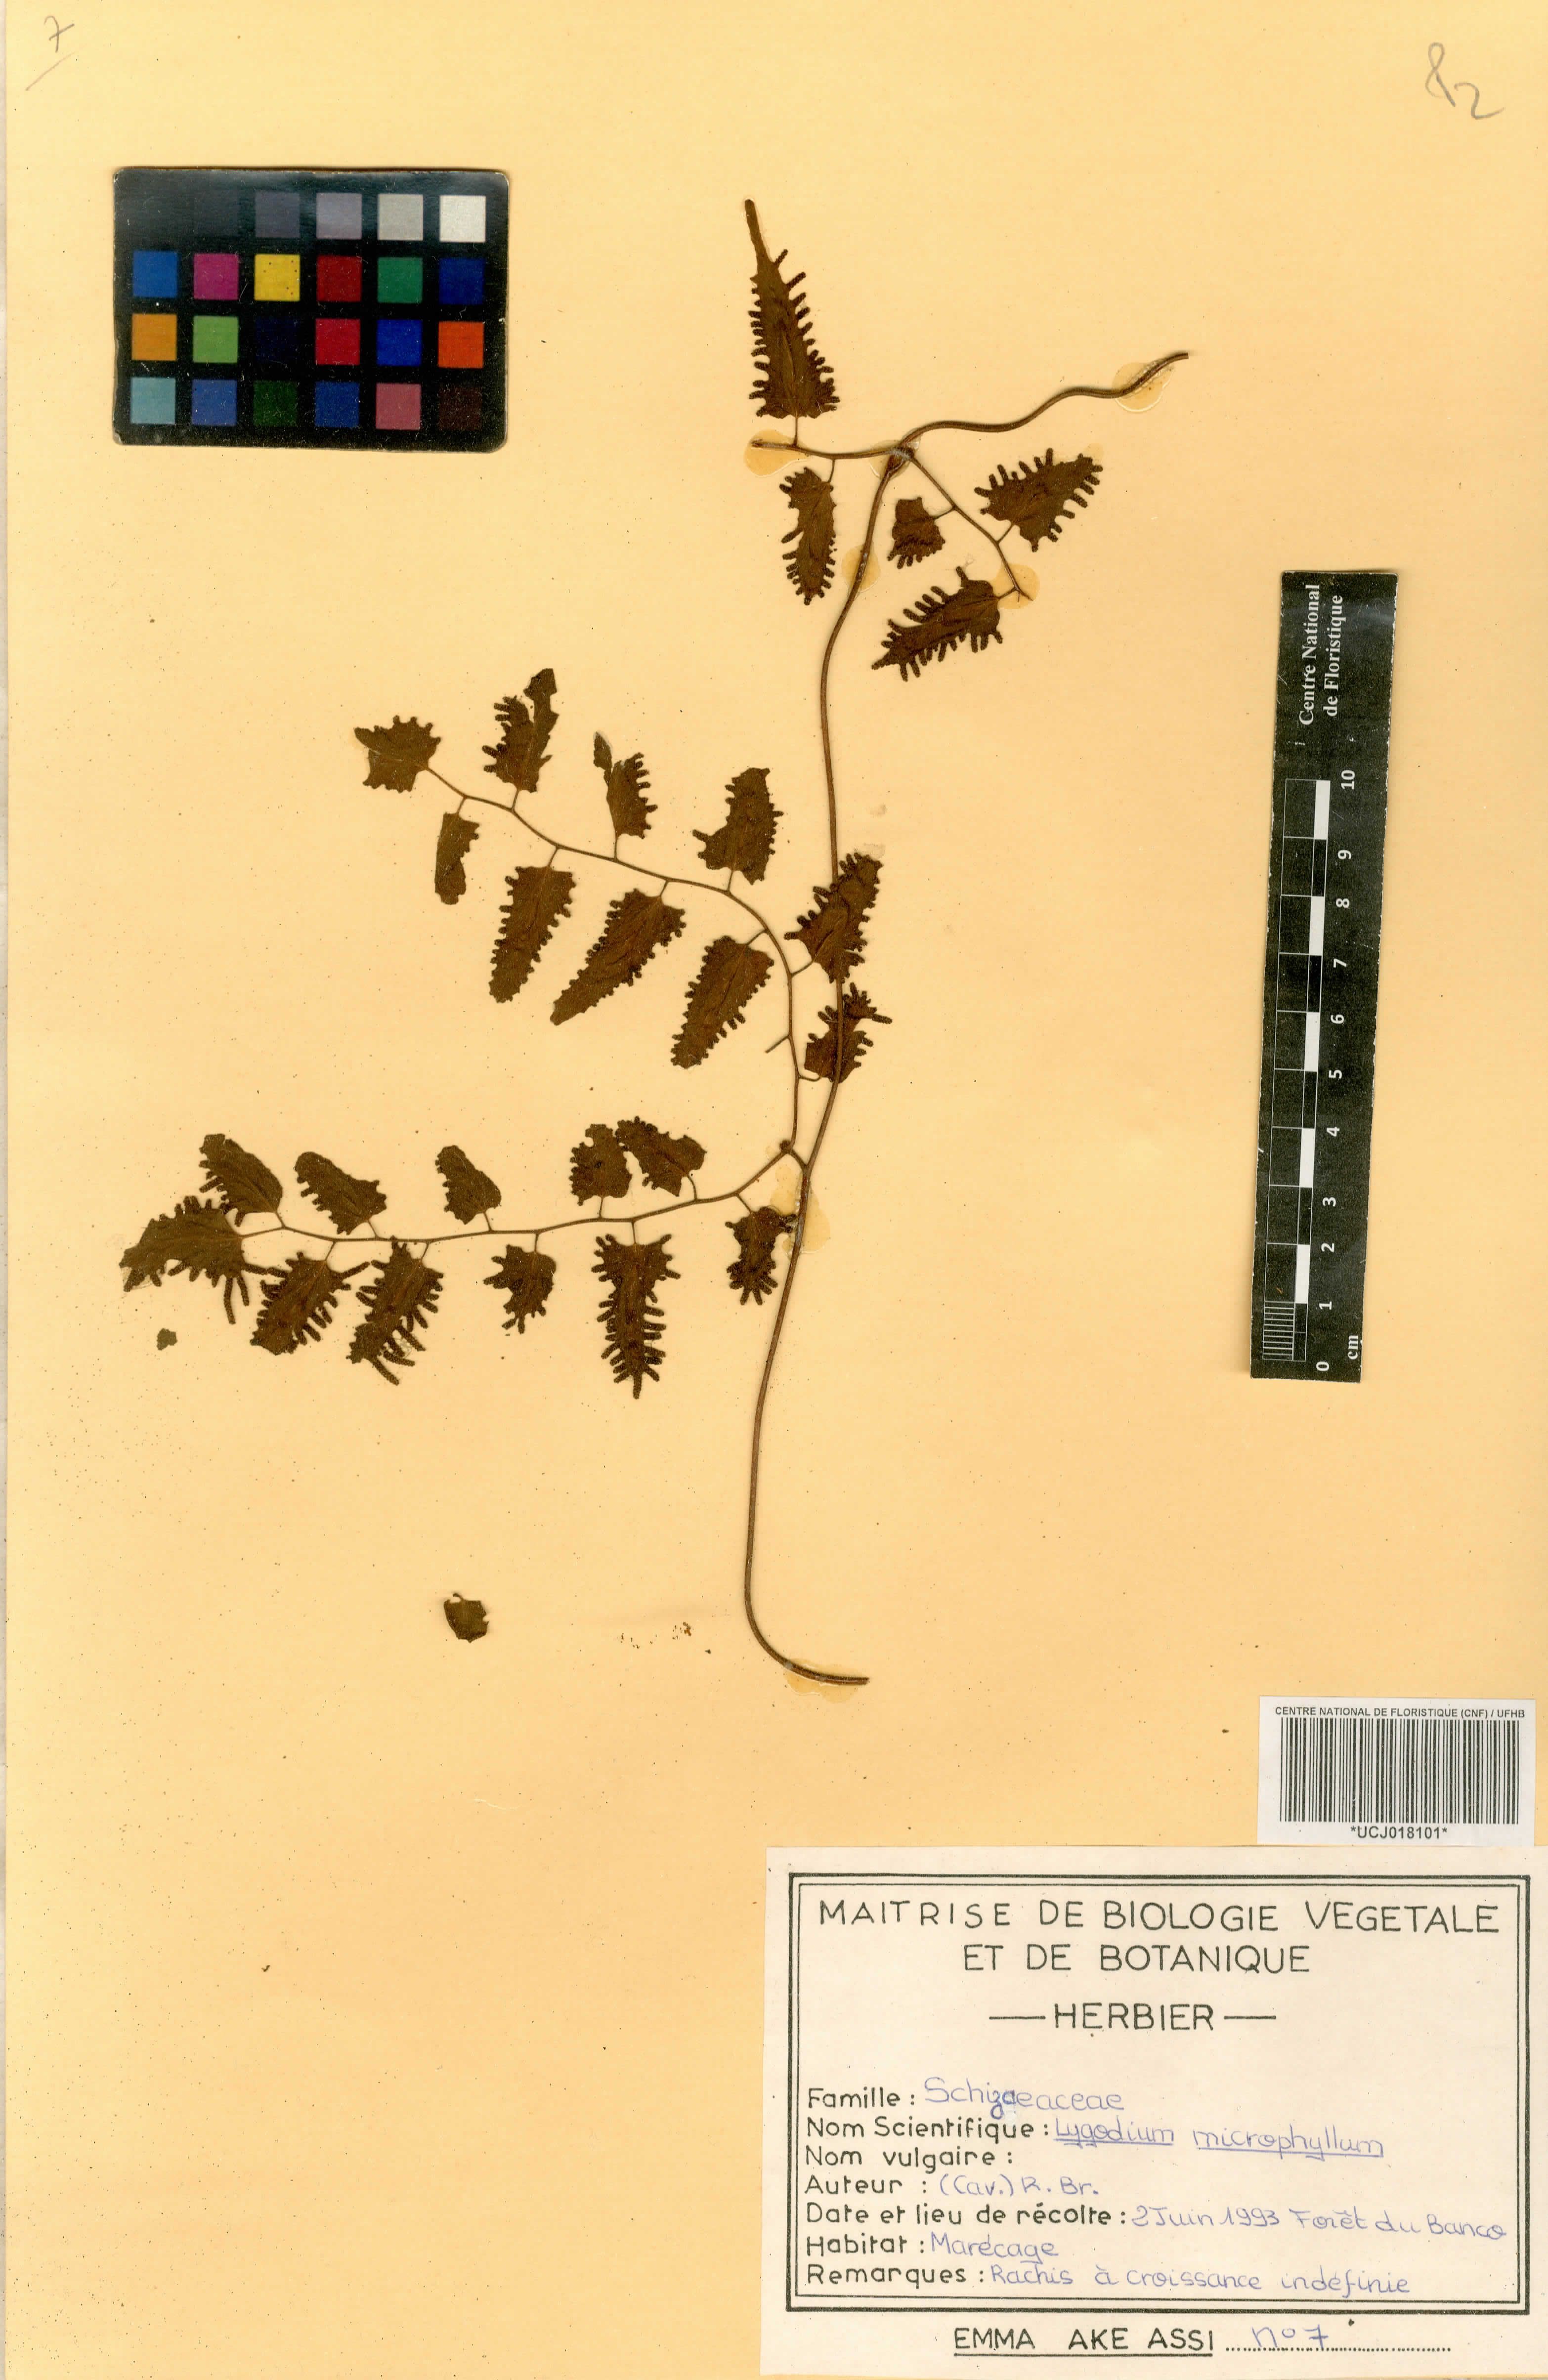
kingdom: Plantae
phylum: Tracheophyta
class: Polypodiopsida
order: Schizaeales
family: Lygodiaceae
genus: Lygodium
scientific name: Lygodium microphyllum
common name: Small-leaf climbing fern
